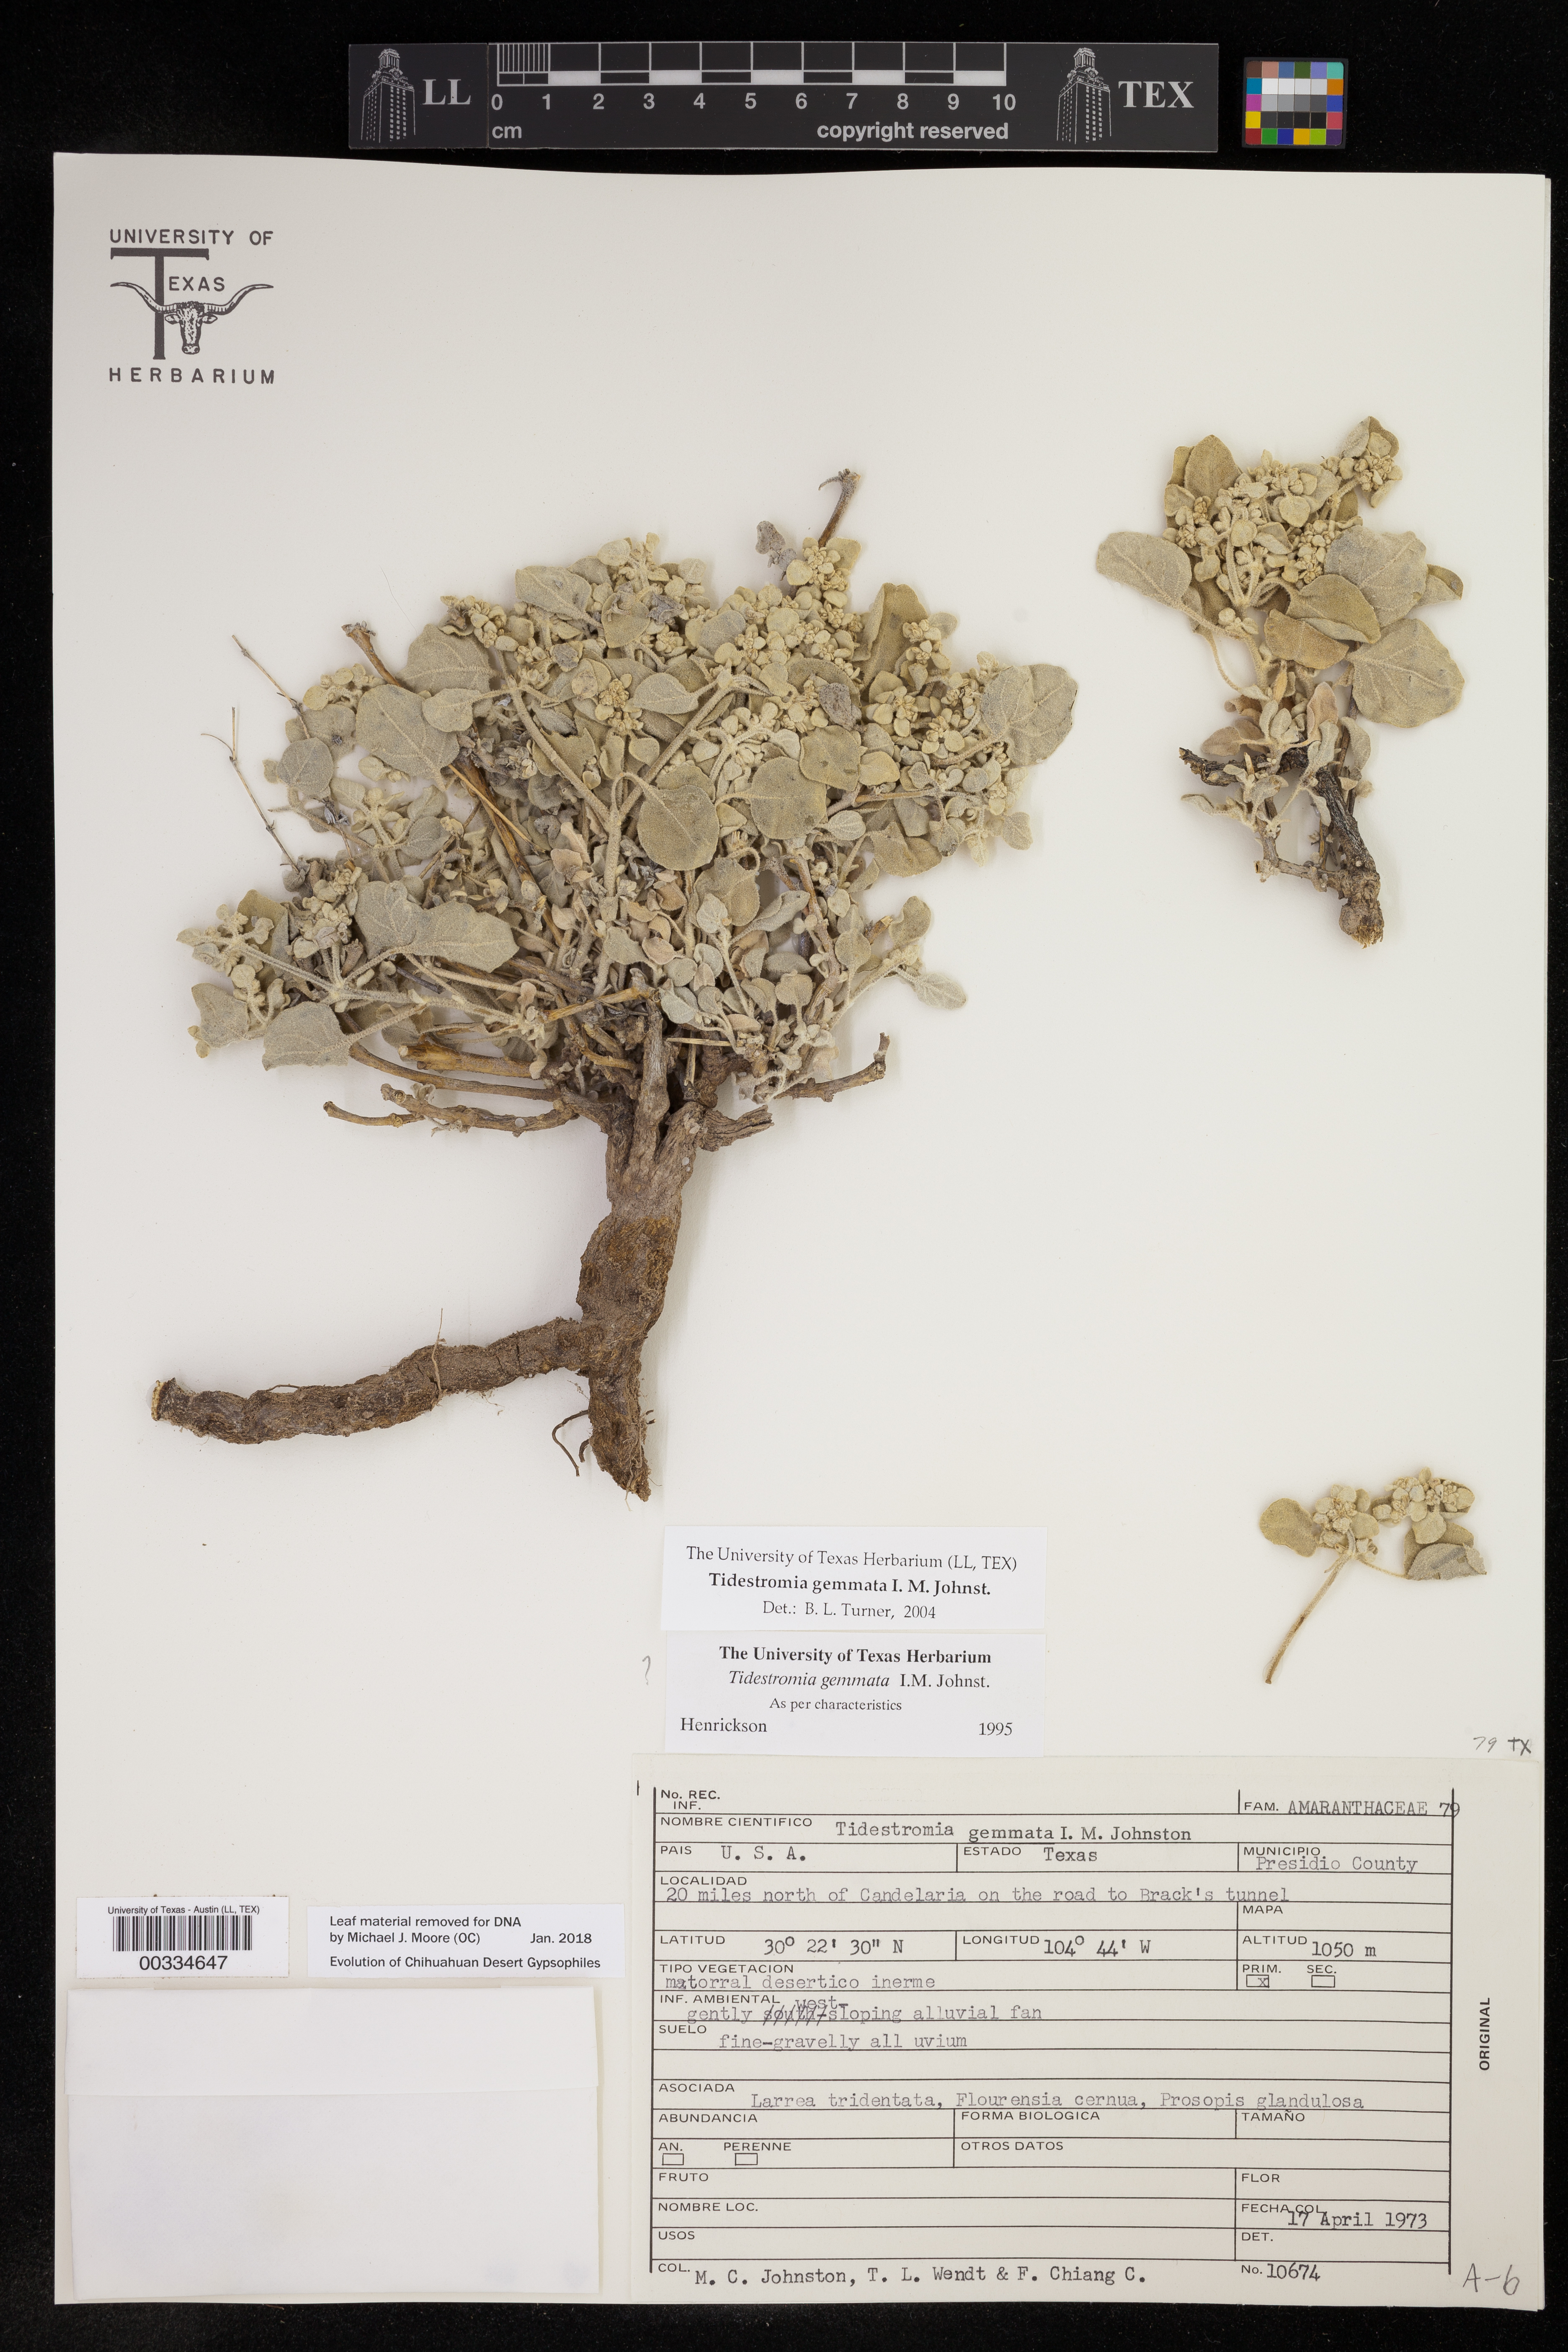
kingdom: Plantae
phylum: Tracheophyta
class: Magnoliopsida
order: Caryophyllales
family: Amaranthaceae
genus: Tidestromia
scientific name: Tidestromia gemmata
